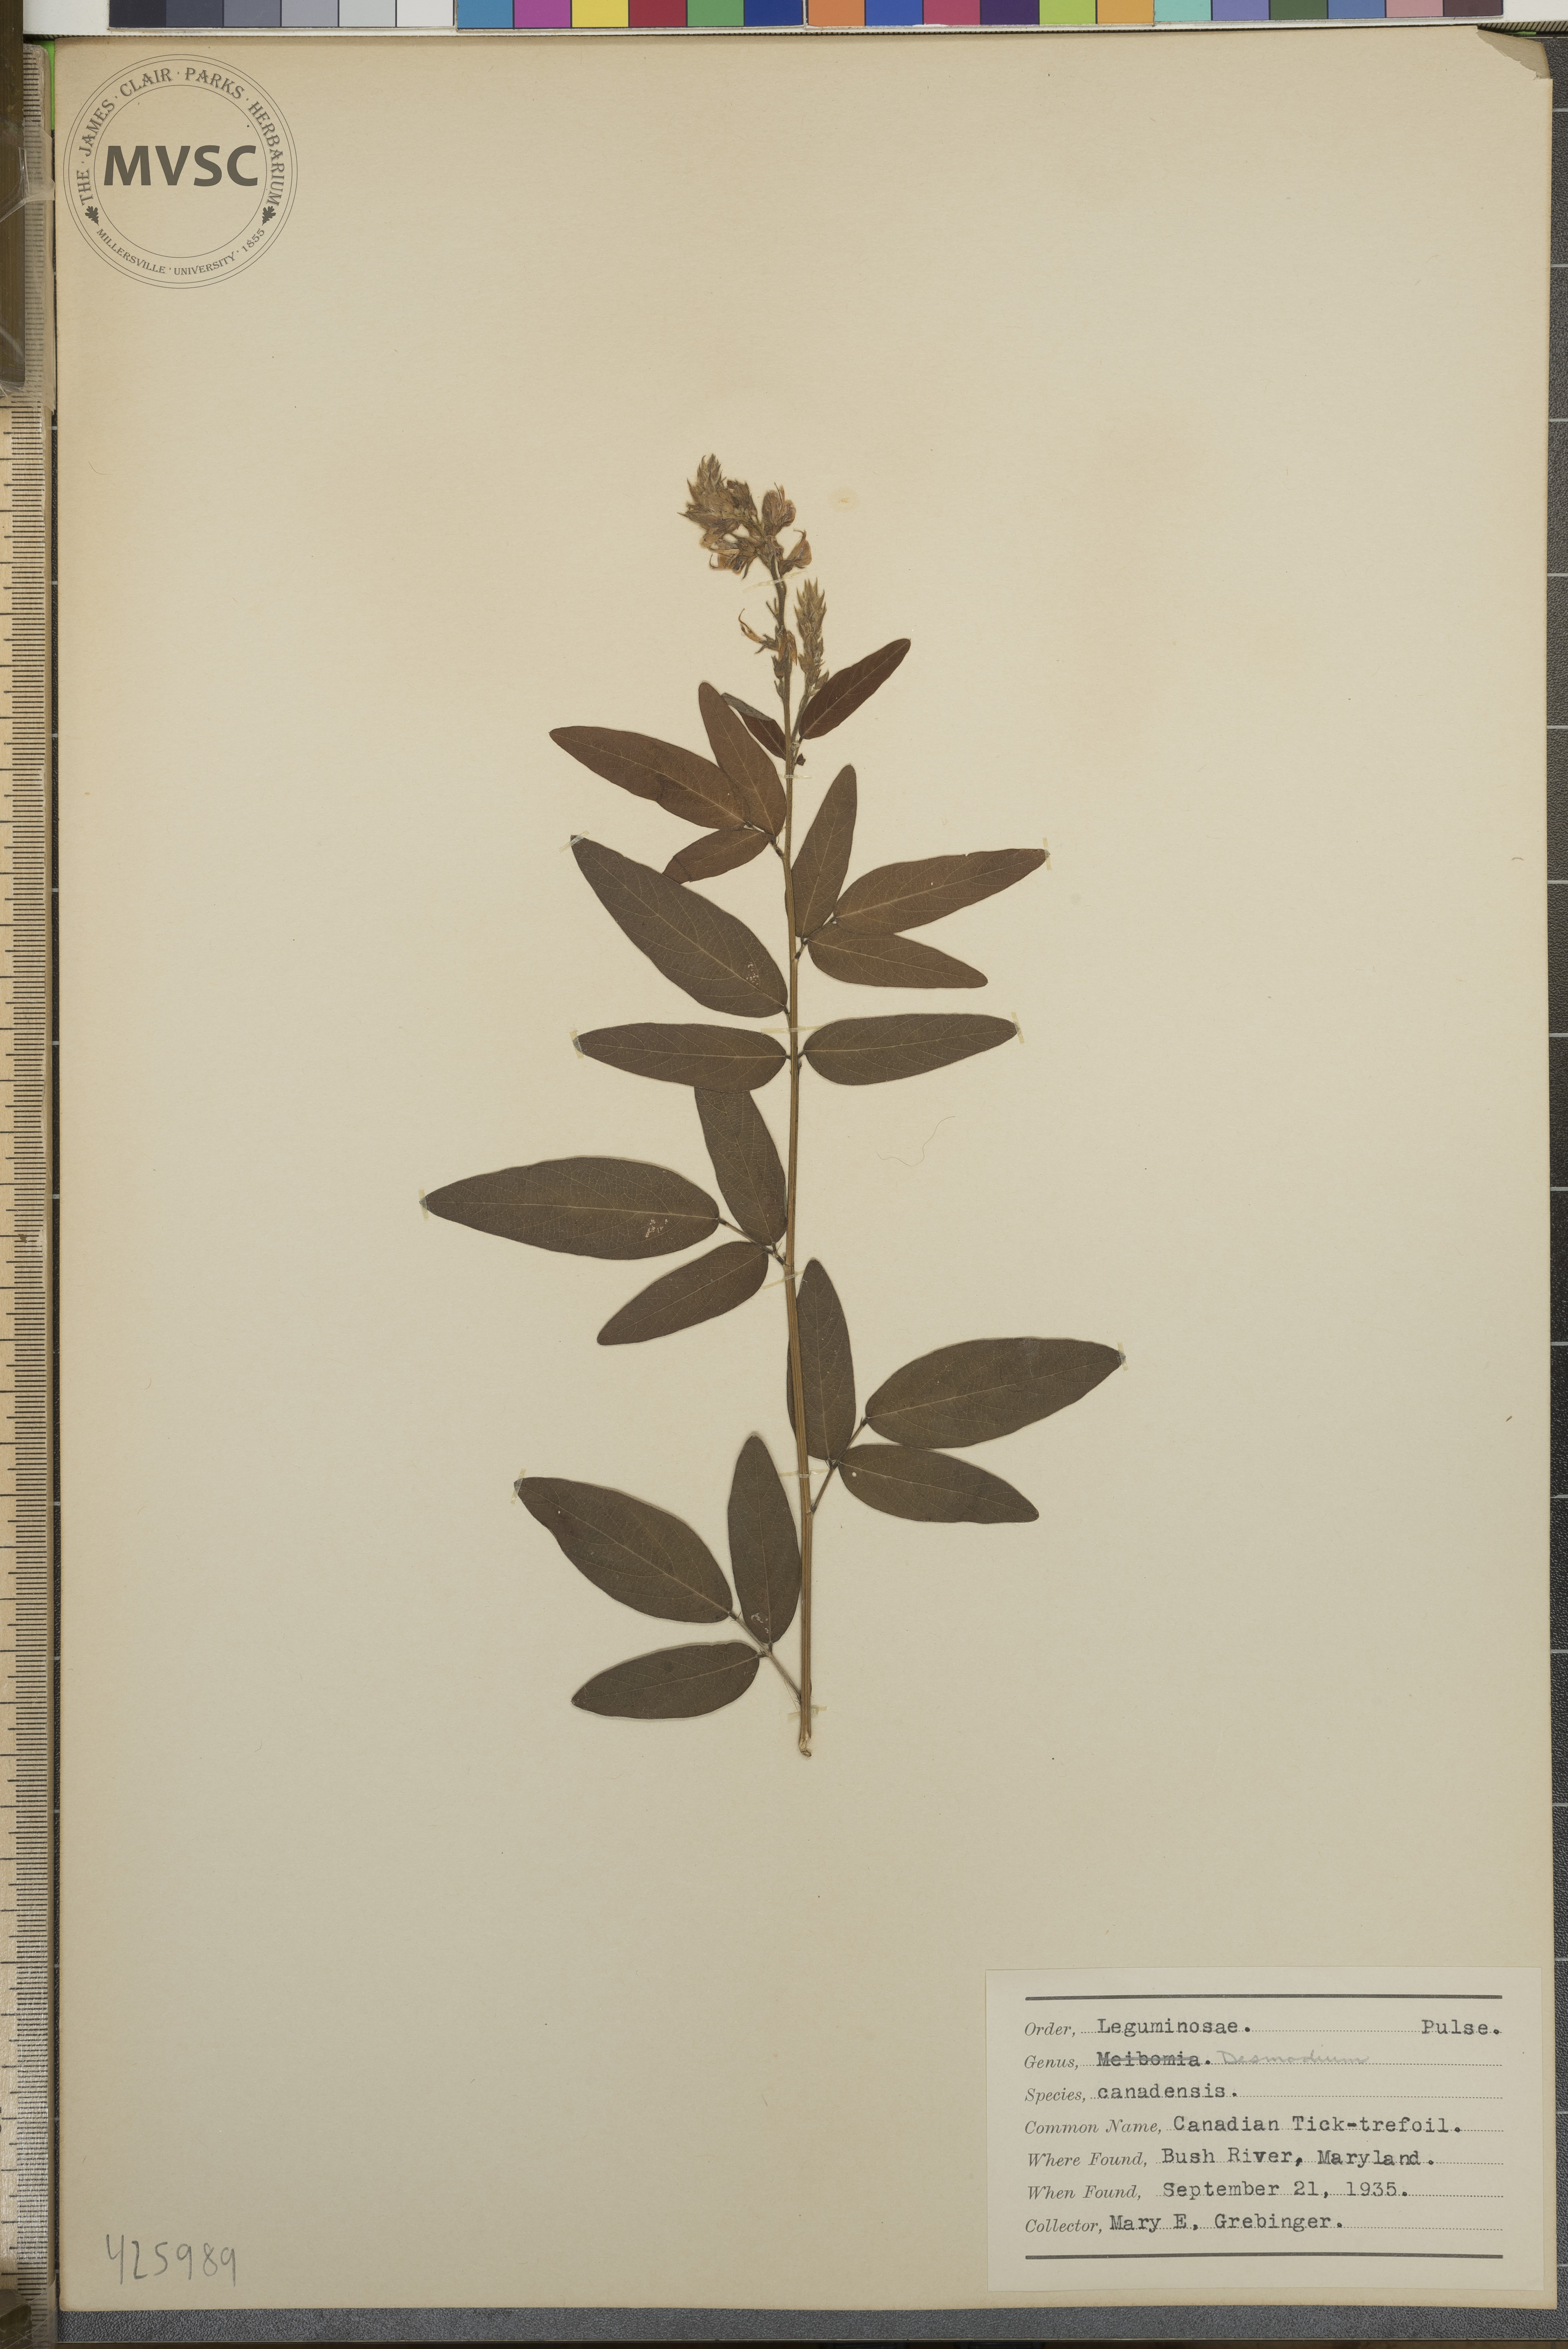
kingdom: Plantae
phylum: Tracheophyta
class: Magnoliopsida
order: Fabales
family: Fabaceae
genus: Desmodium
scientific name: Desmodium canadense
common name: Canadian tick trefoil
